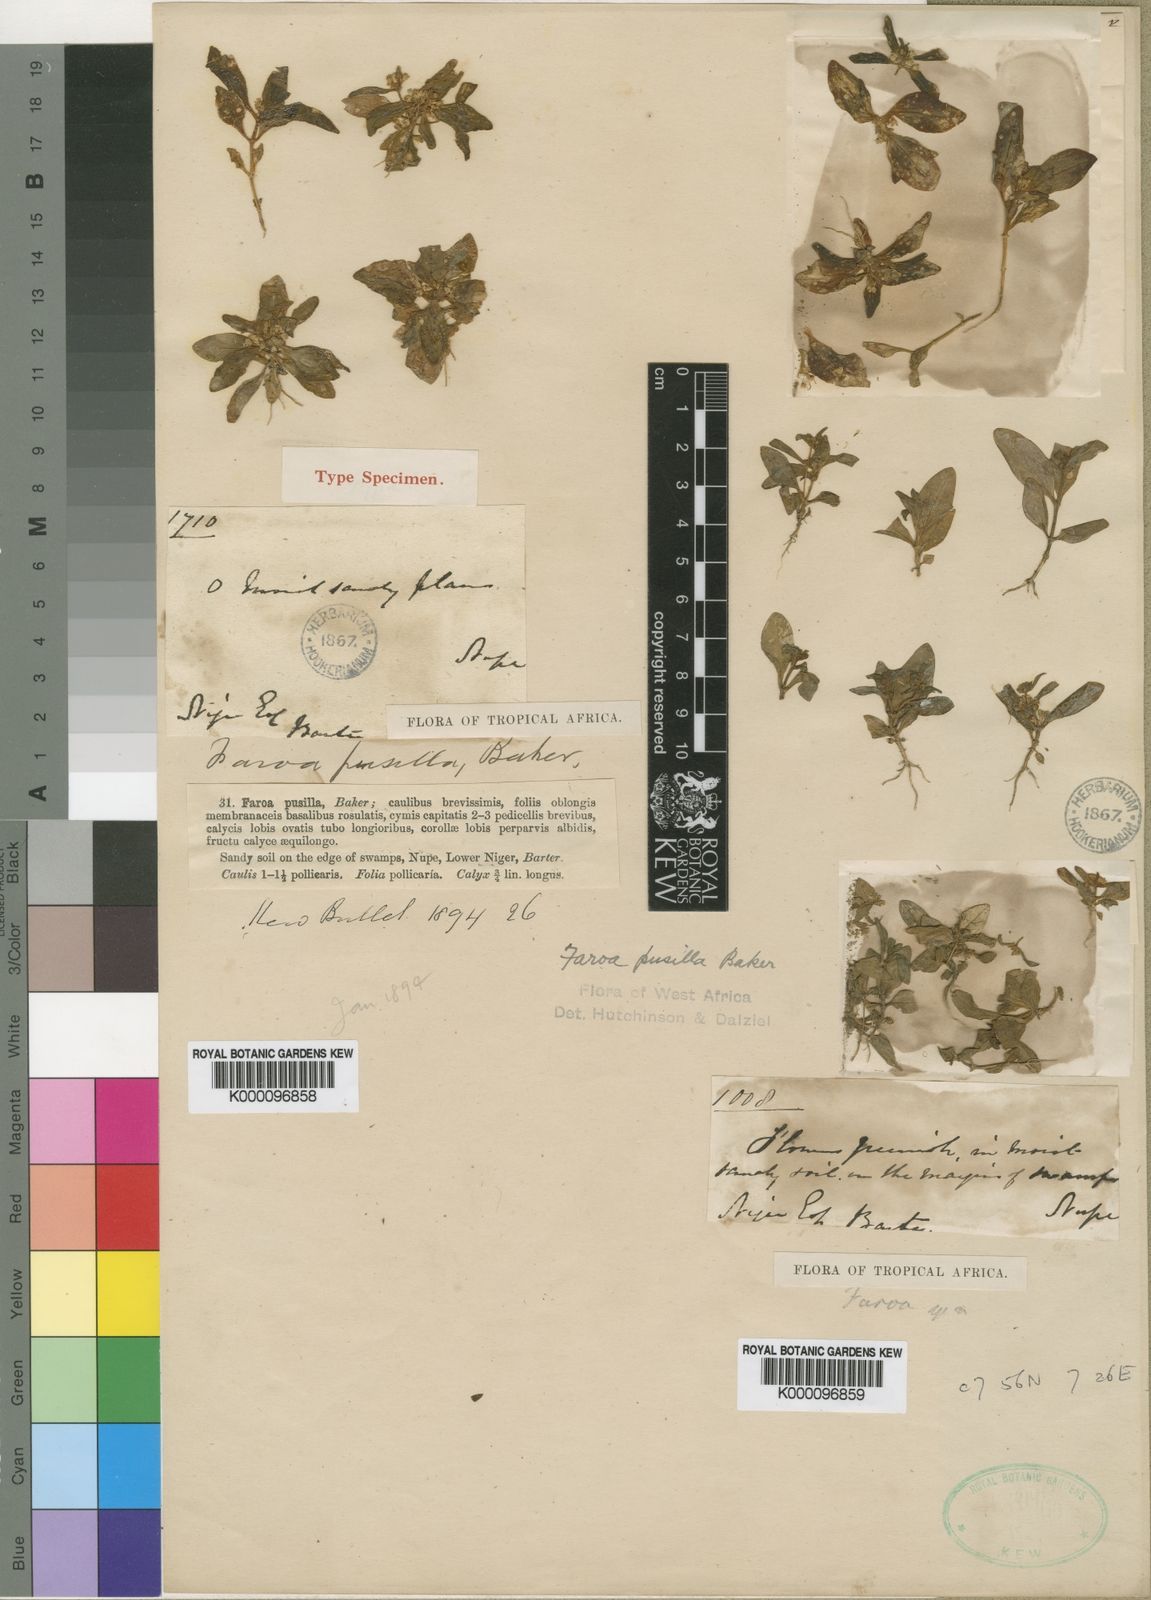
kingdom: Plantae
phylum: Tracheophyta
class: Magnoliopsida
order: Gentianales
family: Gentianaceae
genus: Faroa
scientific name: Faroa pusilla
